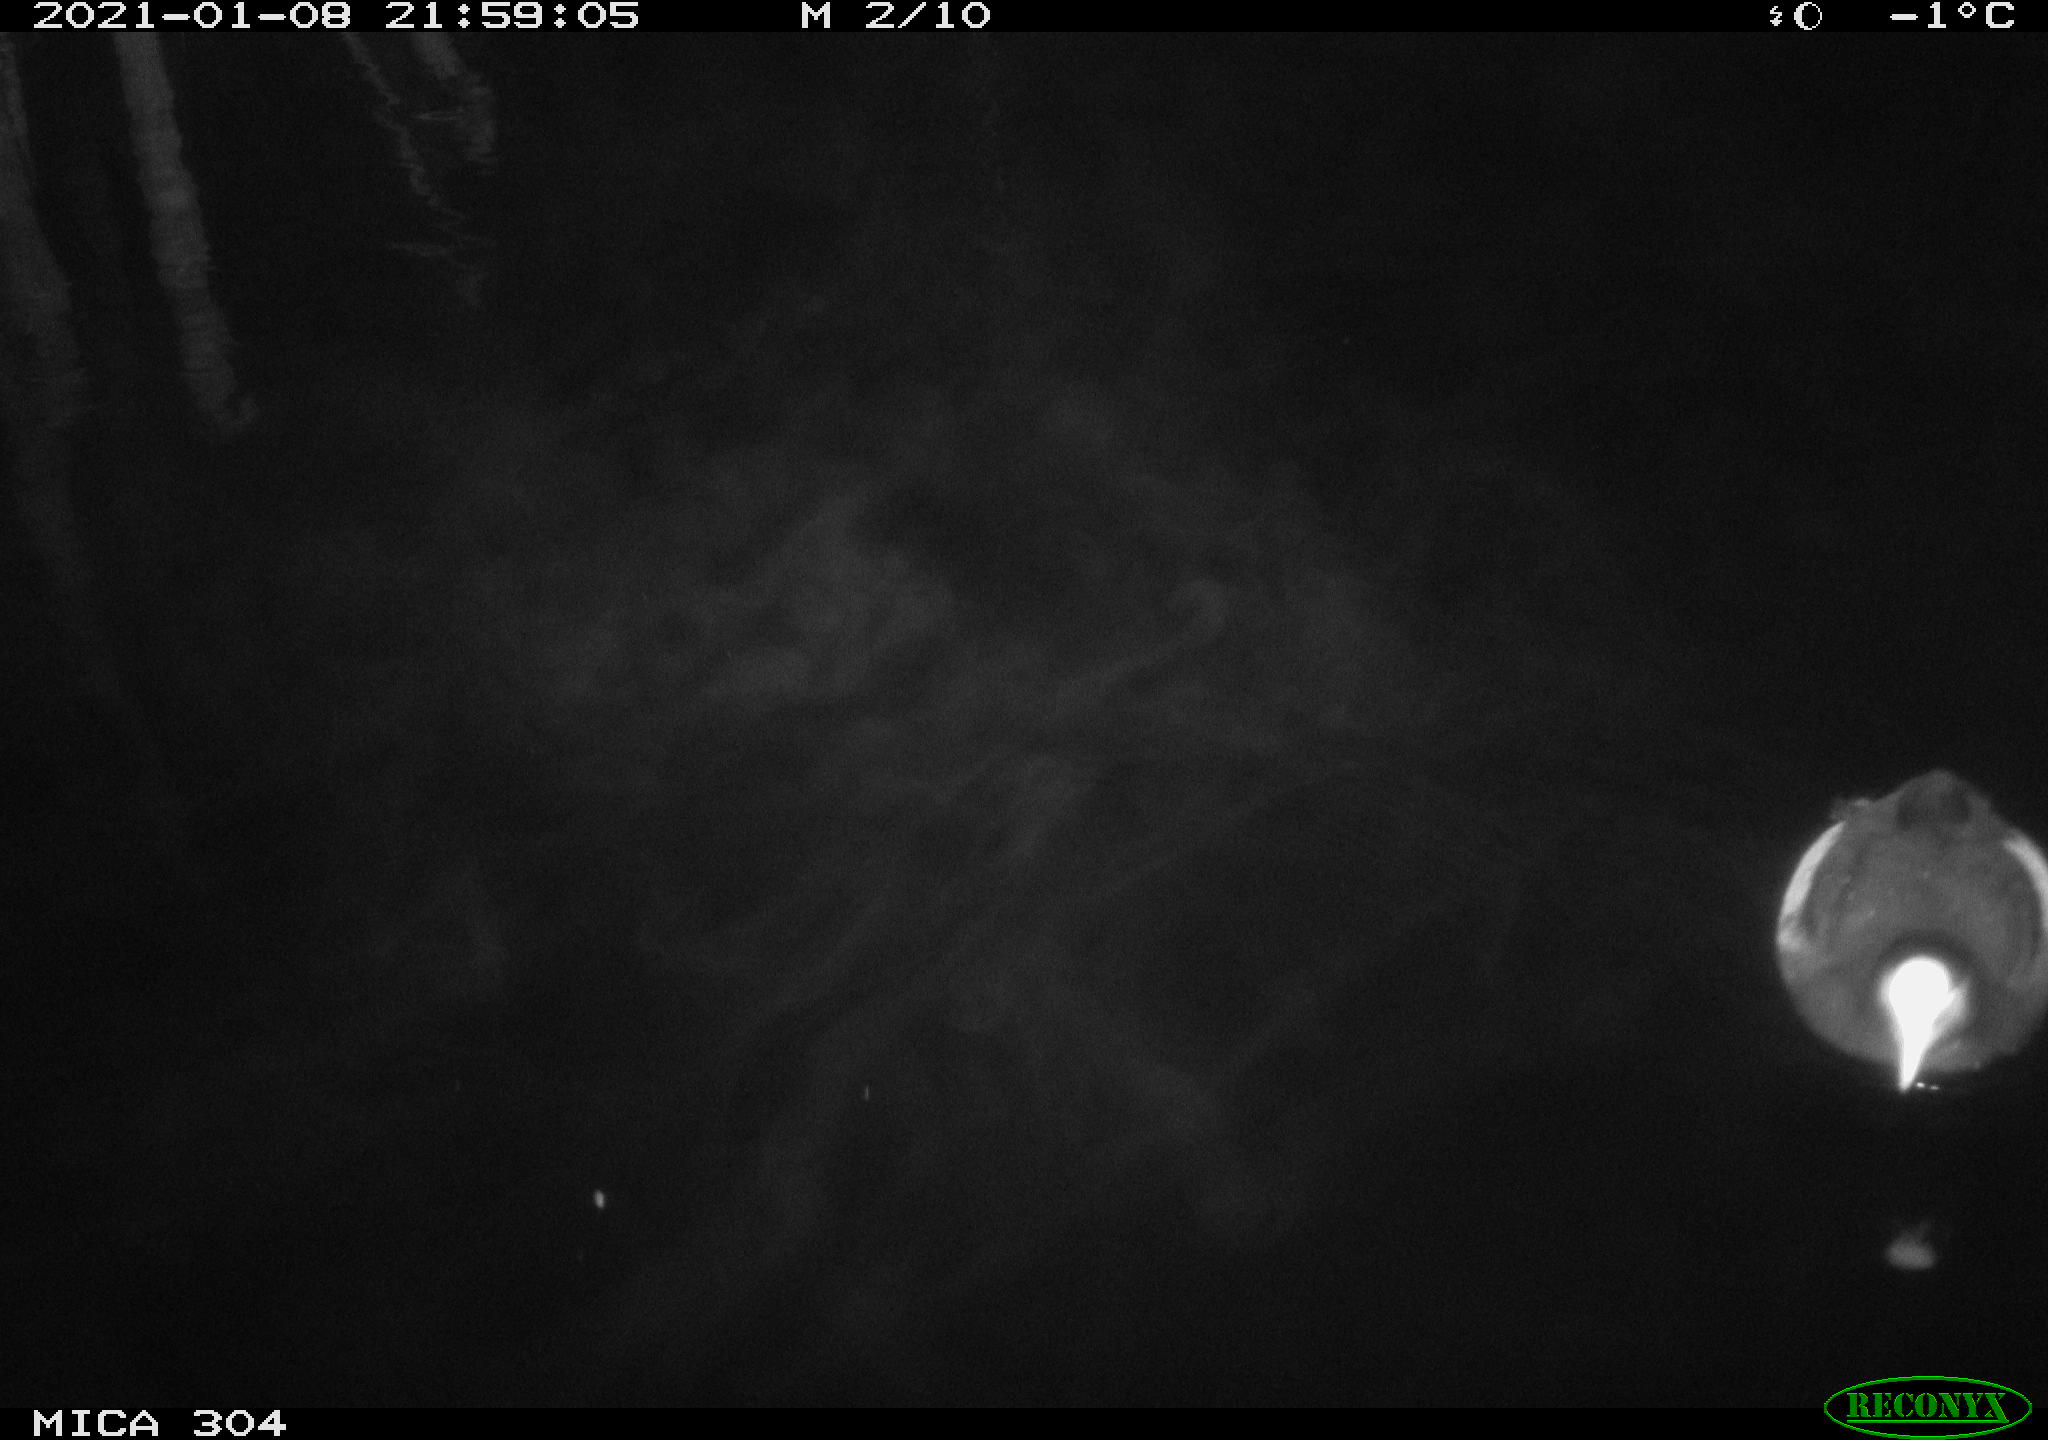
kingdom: Animalia
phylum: Chordata
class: Aves
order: Gruiformes
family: Rallidae
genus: Fulica
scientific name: Fulica atra
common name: Eurasian coot
